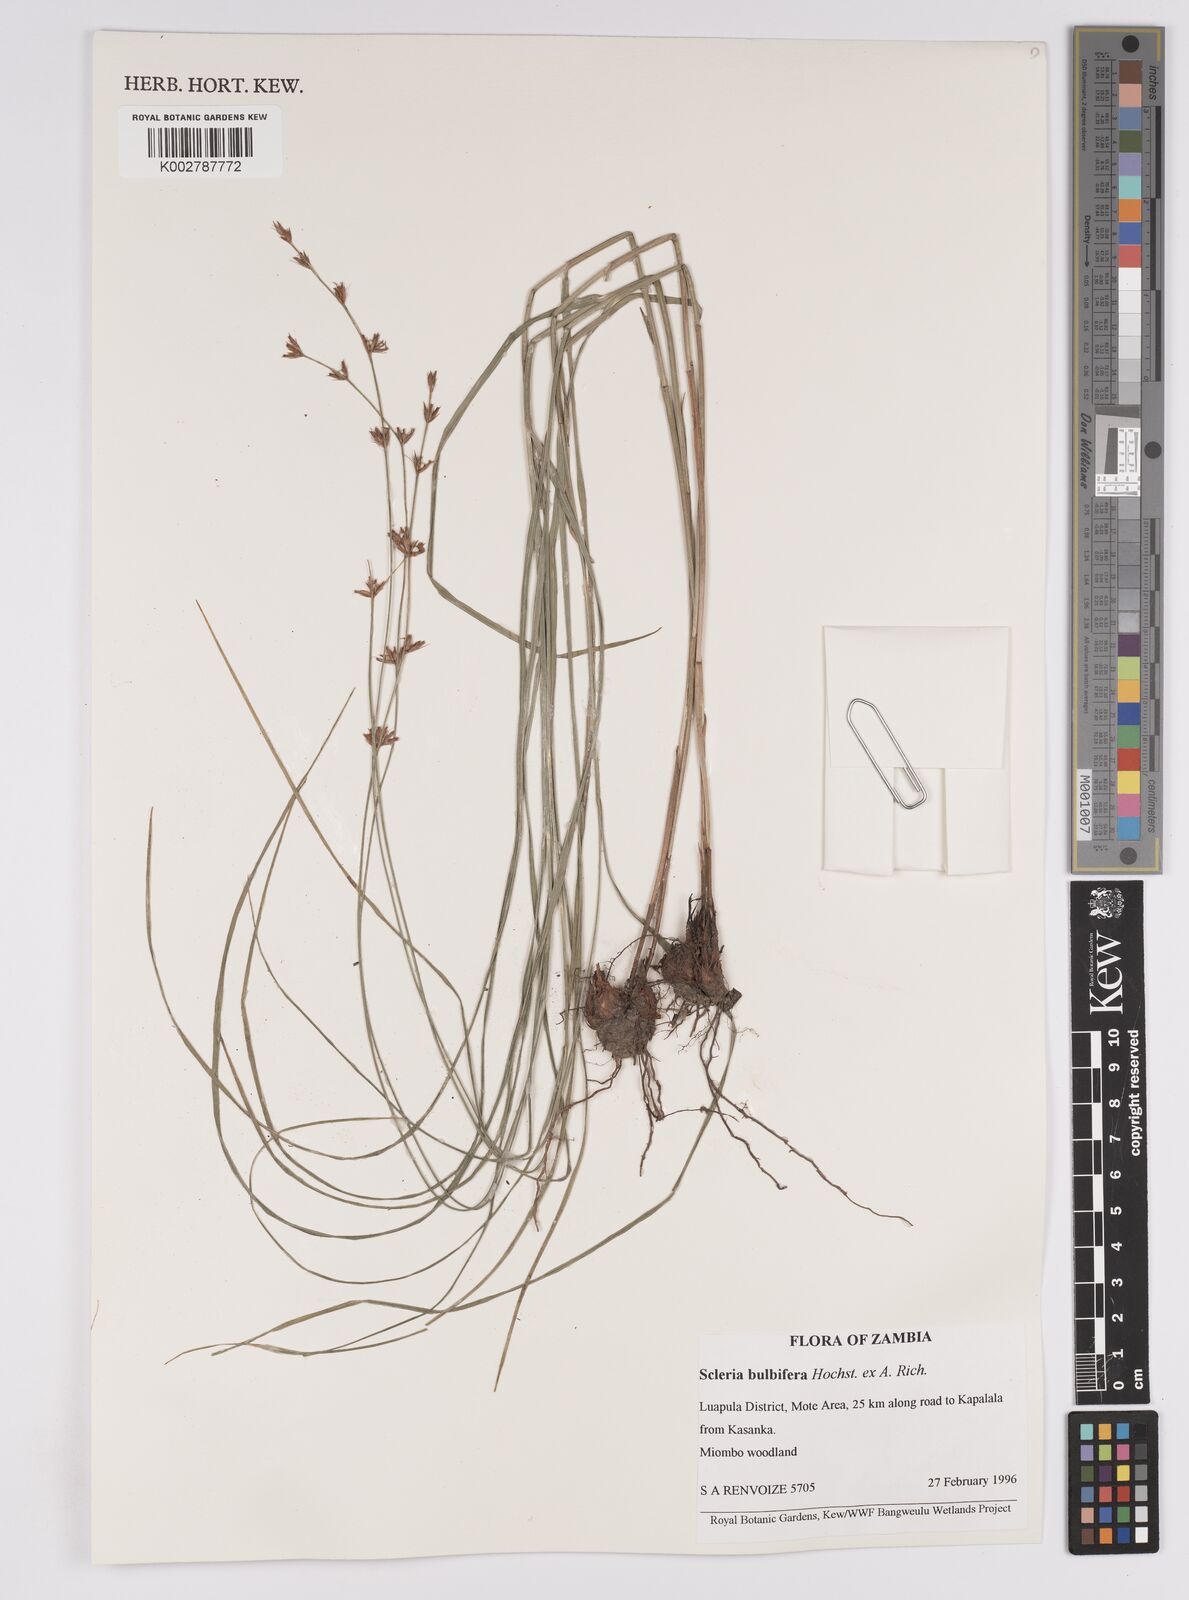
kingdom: Plantae
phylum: Tracheophyta
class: Liliopsida
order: Poales
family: Cyperaceae
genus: Scleria
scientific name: Scleria bulbifera
